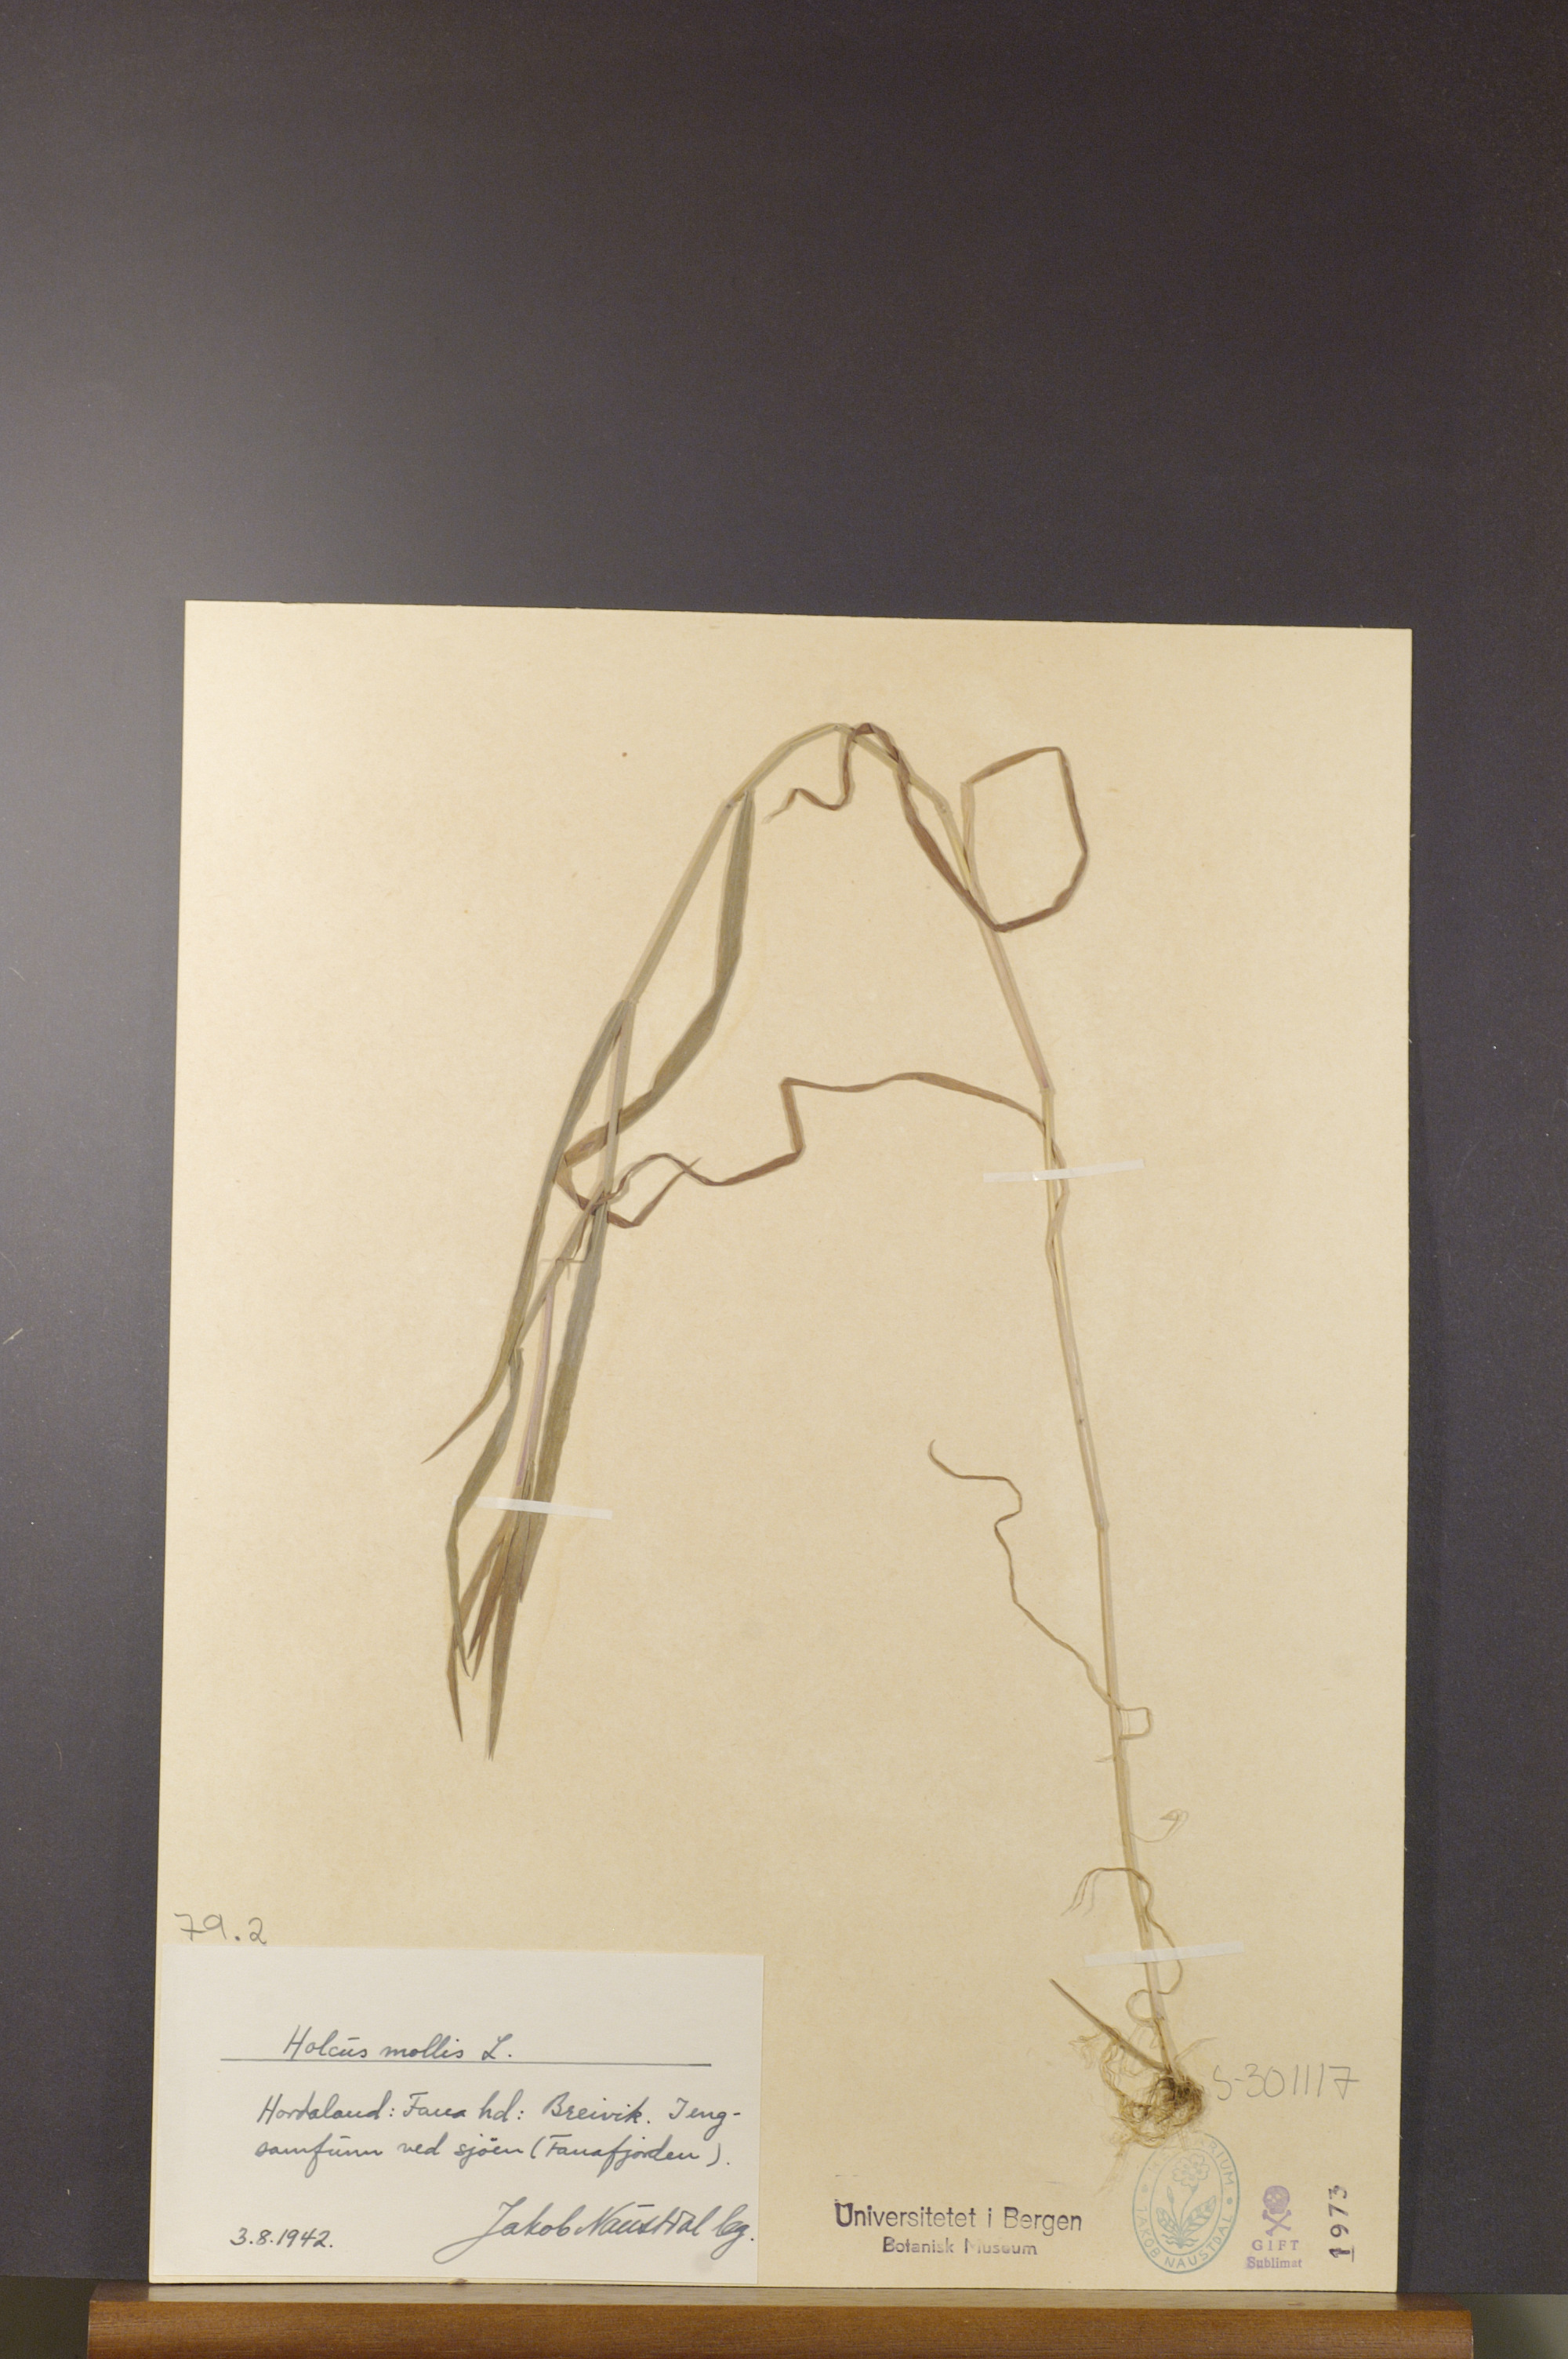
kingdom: Plantae
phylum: Tracheophyta
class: Liliopsida
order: Poales
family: Poaceae
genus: Holcus
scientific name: Holcus mollis
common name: Creeping velvetgrass
